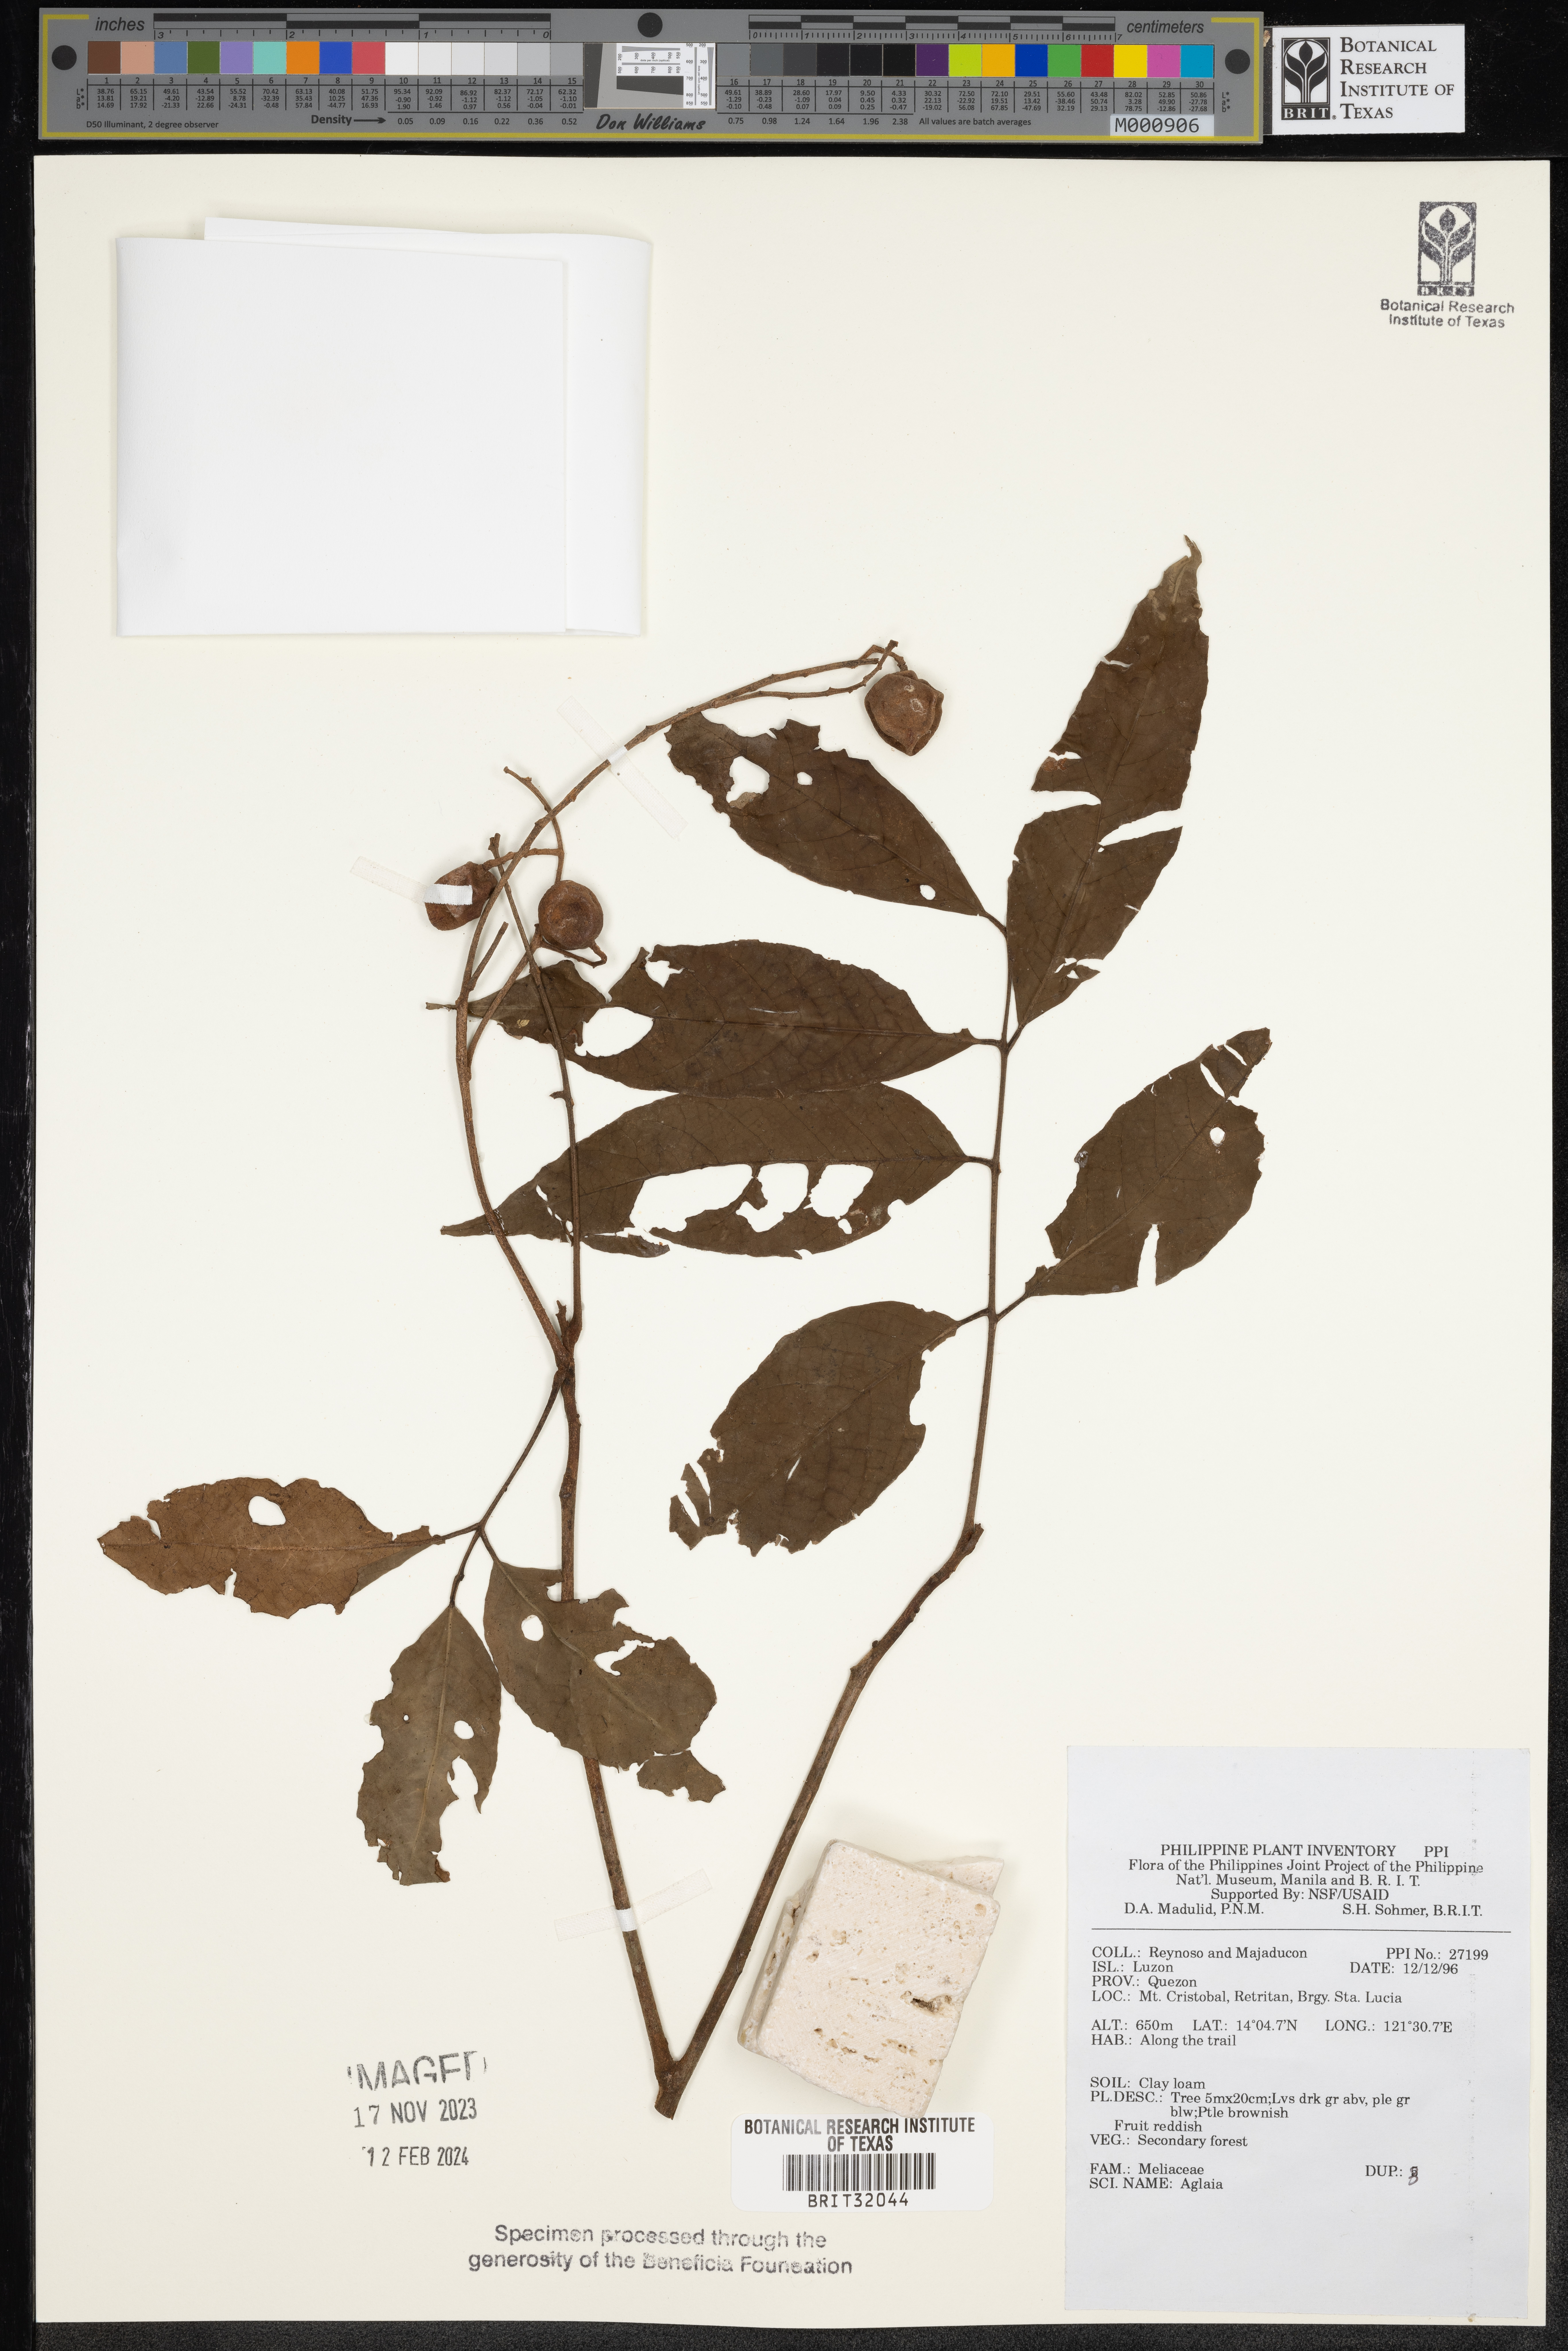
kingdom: Plantae
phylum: Tracheophyta
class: Magnoliopsida
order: Sapindales
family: Meliaceae
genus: Aglaia
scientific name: Aglaia
